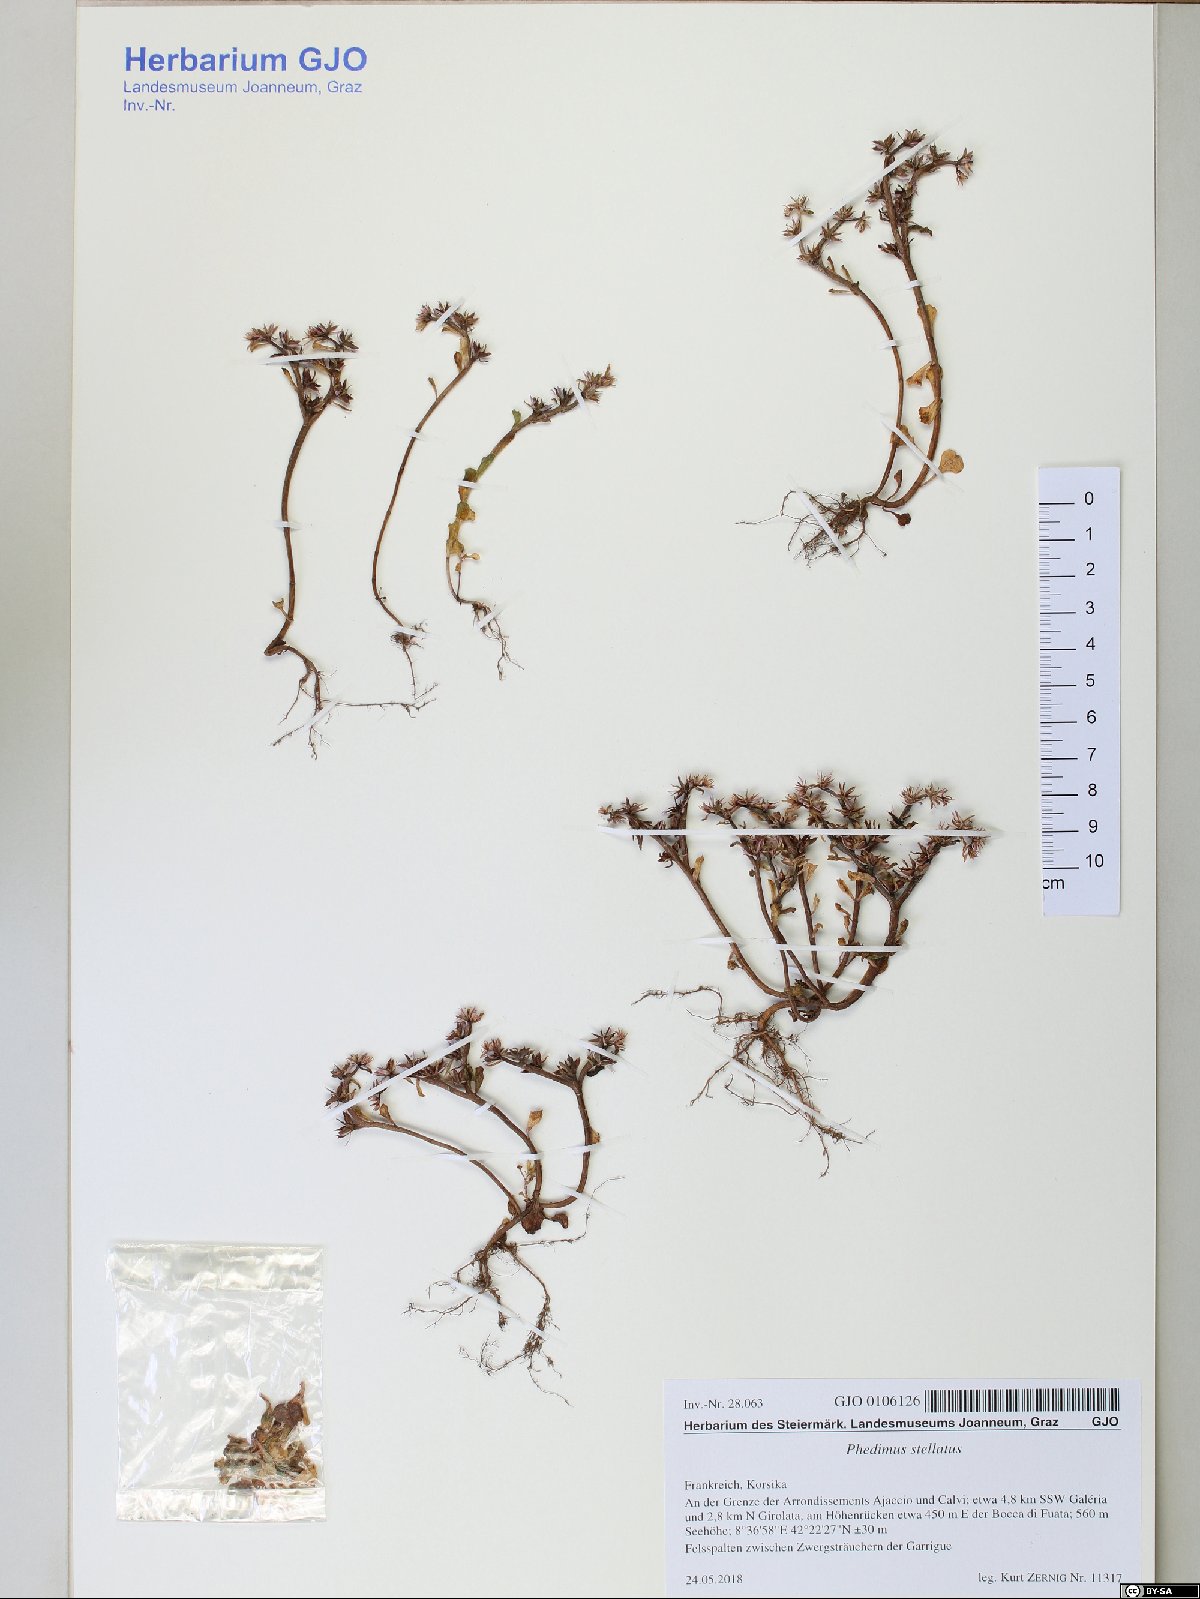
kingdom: Plantae
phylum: Tracheophyta
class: Magnoliopsida
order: Saxifragales
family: Crassulaceae
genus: Phedimus
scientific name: Phedimus stellatus
